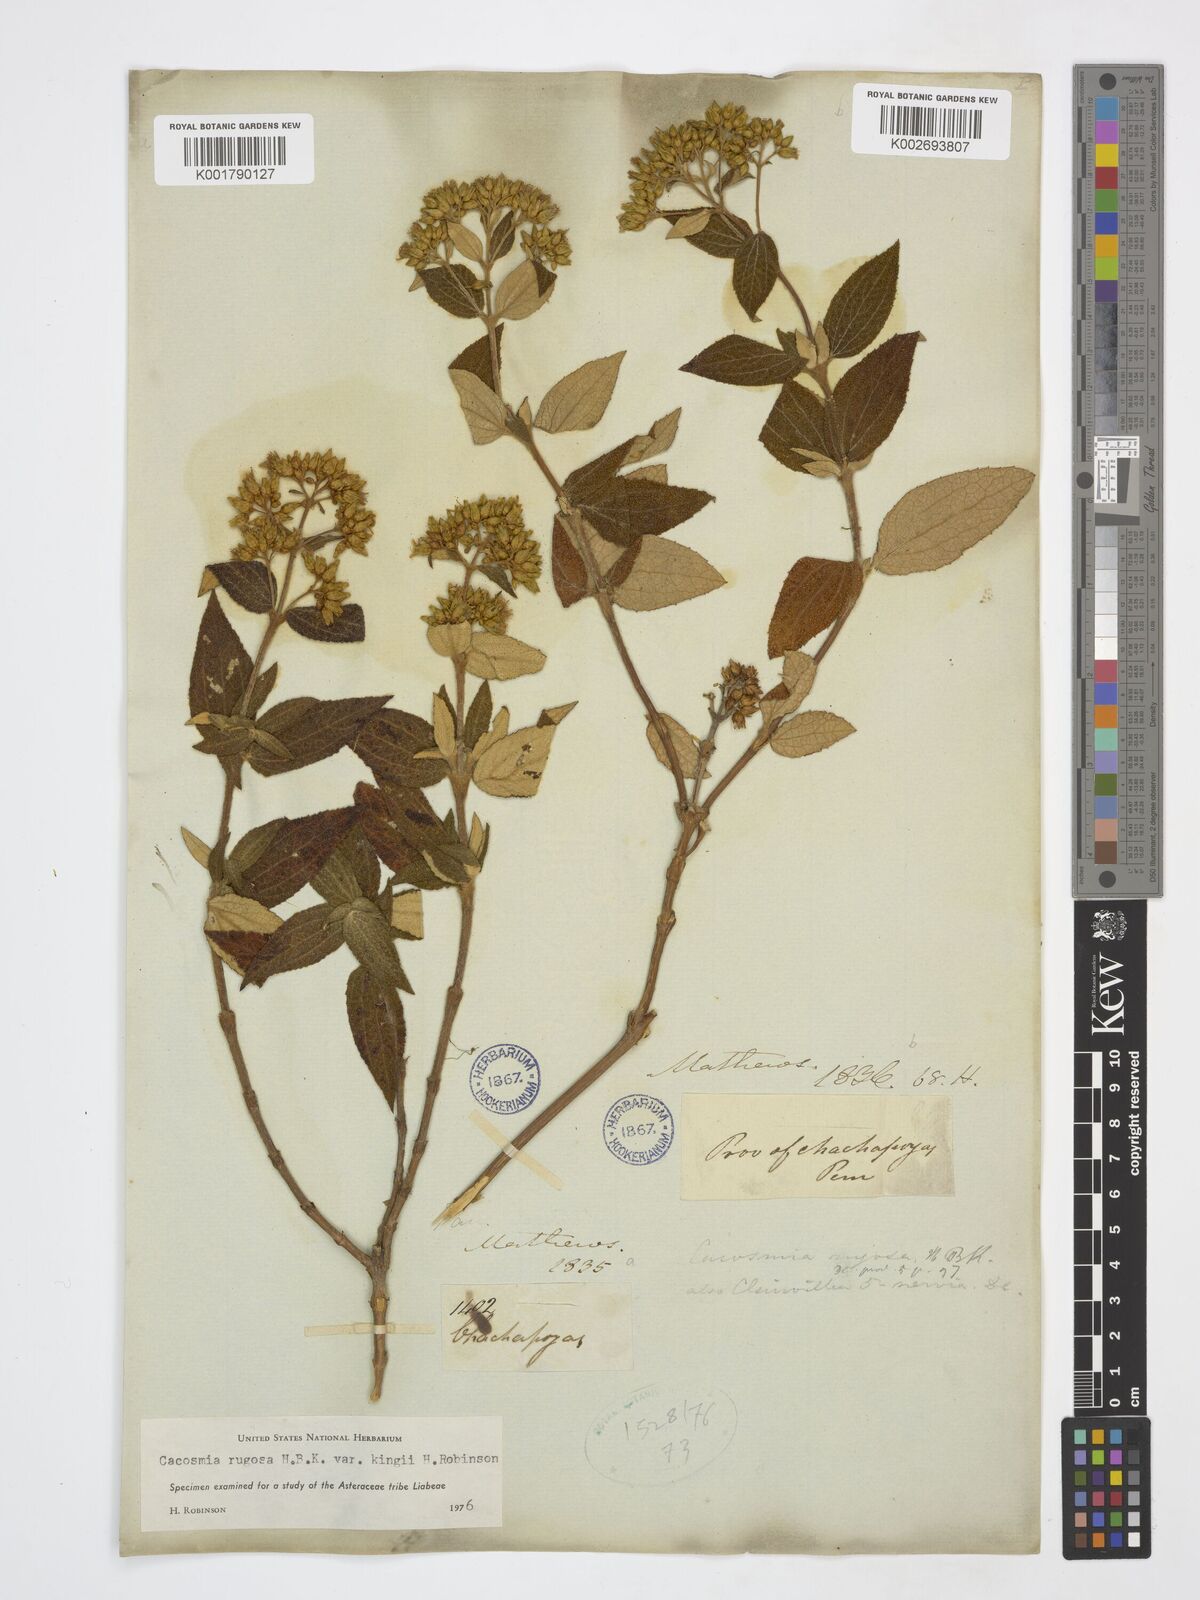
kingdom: Plantae
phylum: Tracheophyta
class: Magnoliopsida
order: Asterales
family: Asteraceae
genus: Cacosmia
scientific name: Cacosmia rugosa
